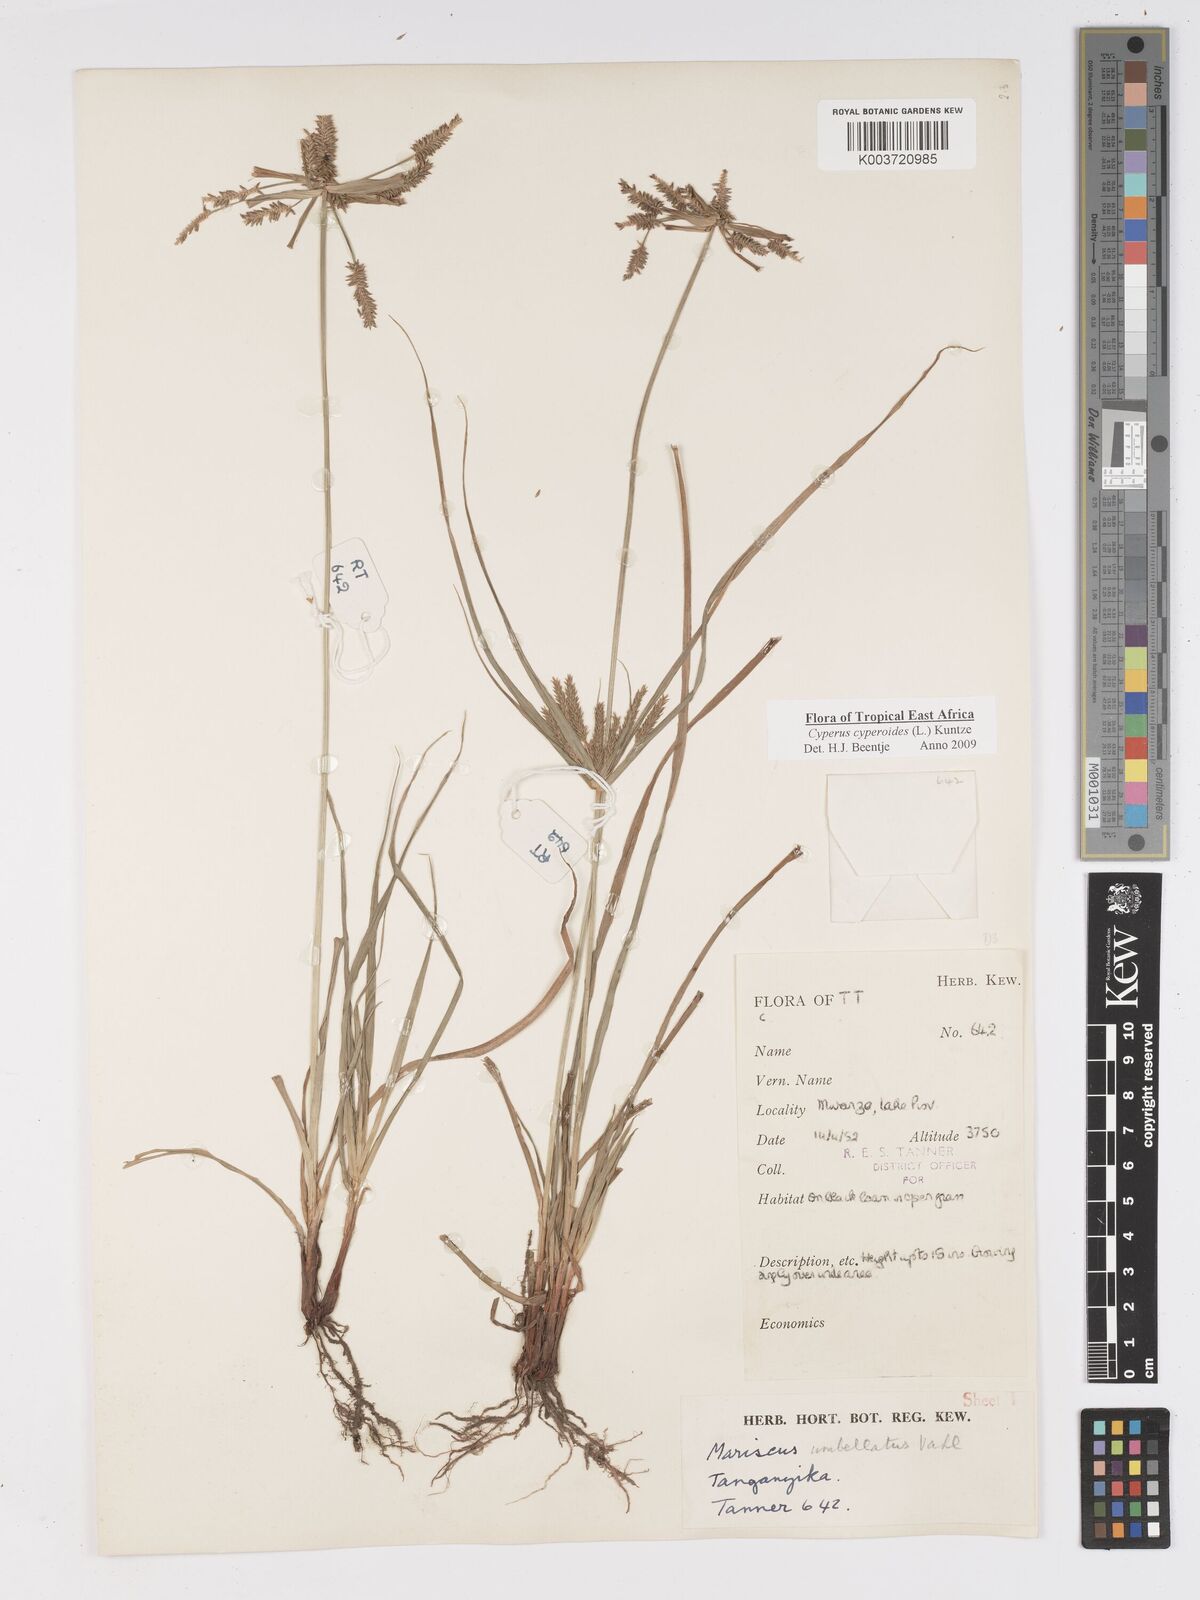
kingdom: Plantae
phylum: Tracheophyta
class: Liliopsida
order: Poales
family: Cyperaceae
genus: Cyperus
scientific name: Cyperus macrocarpus
